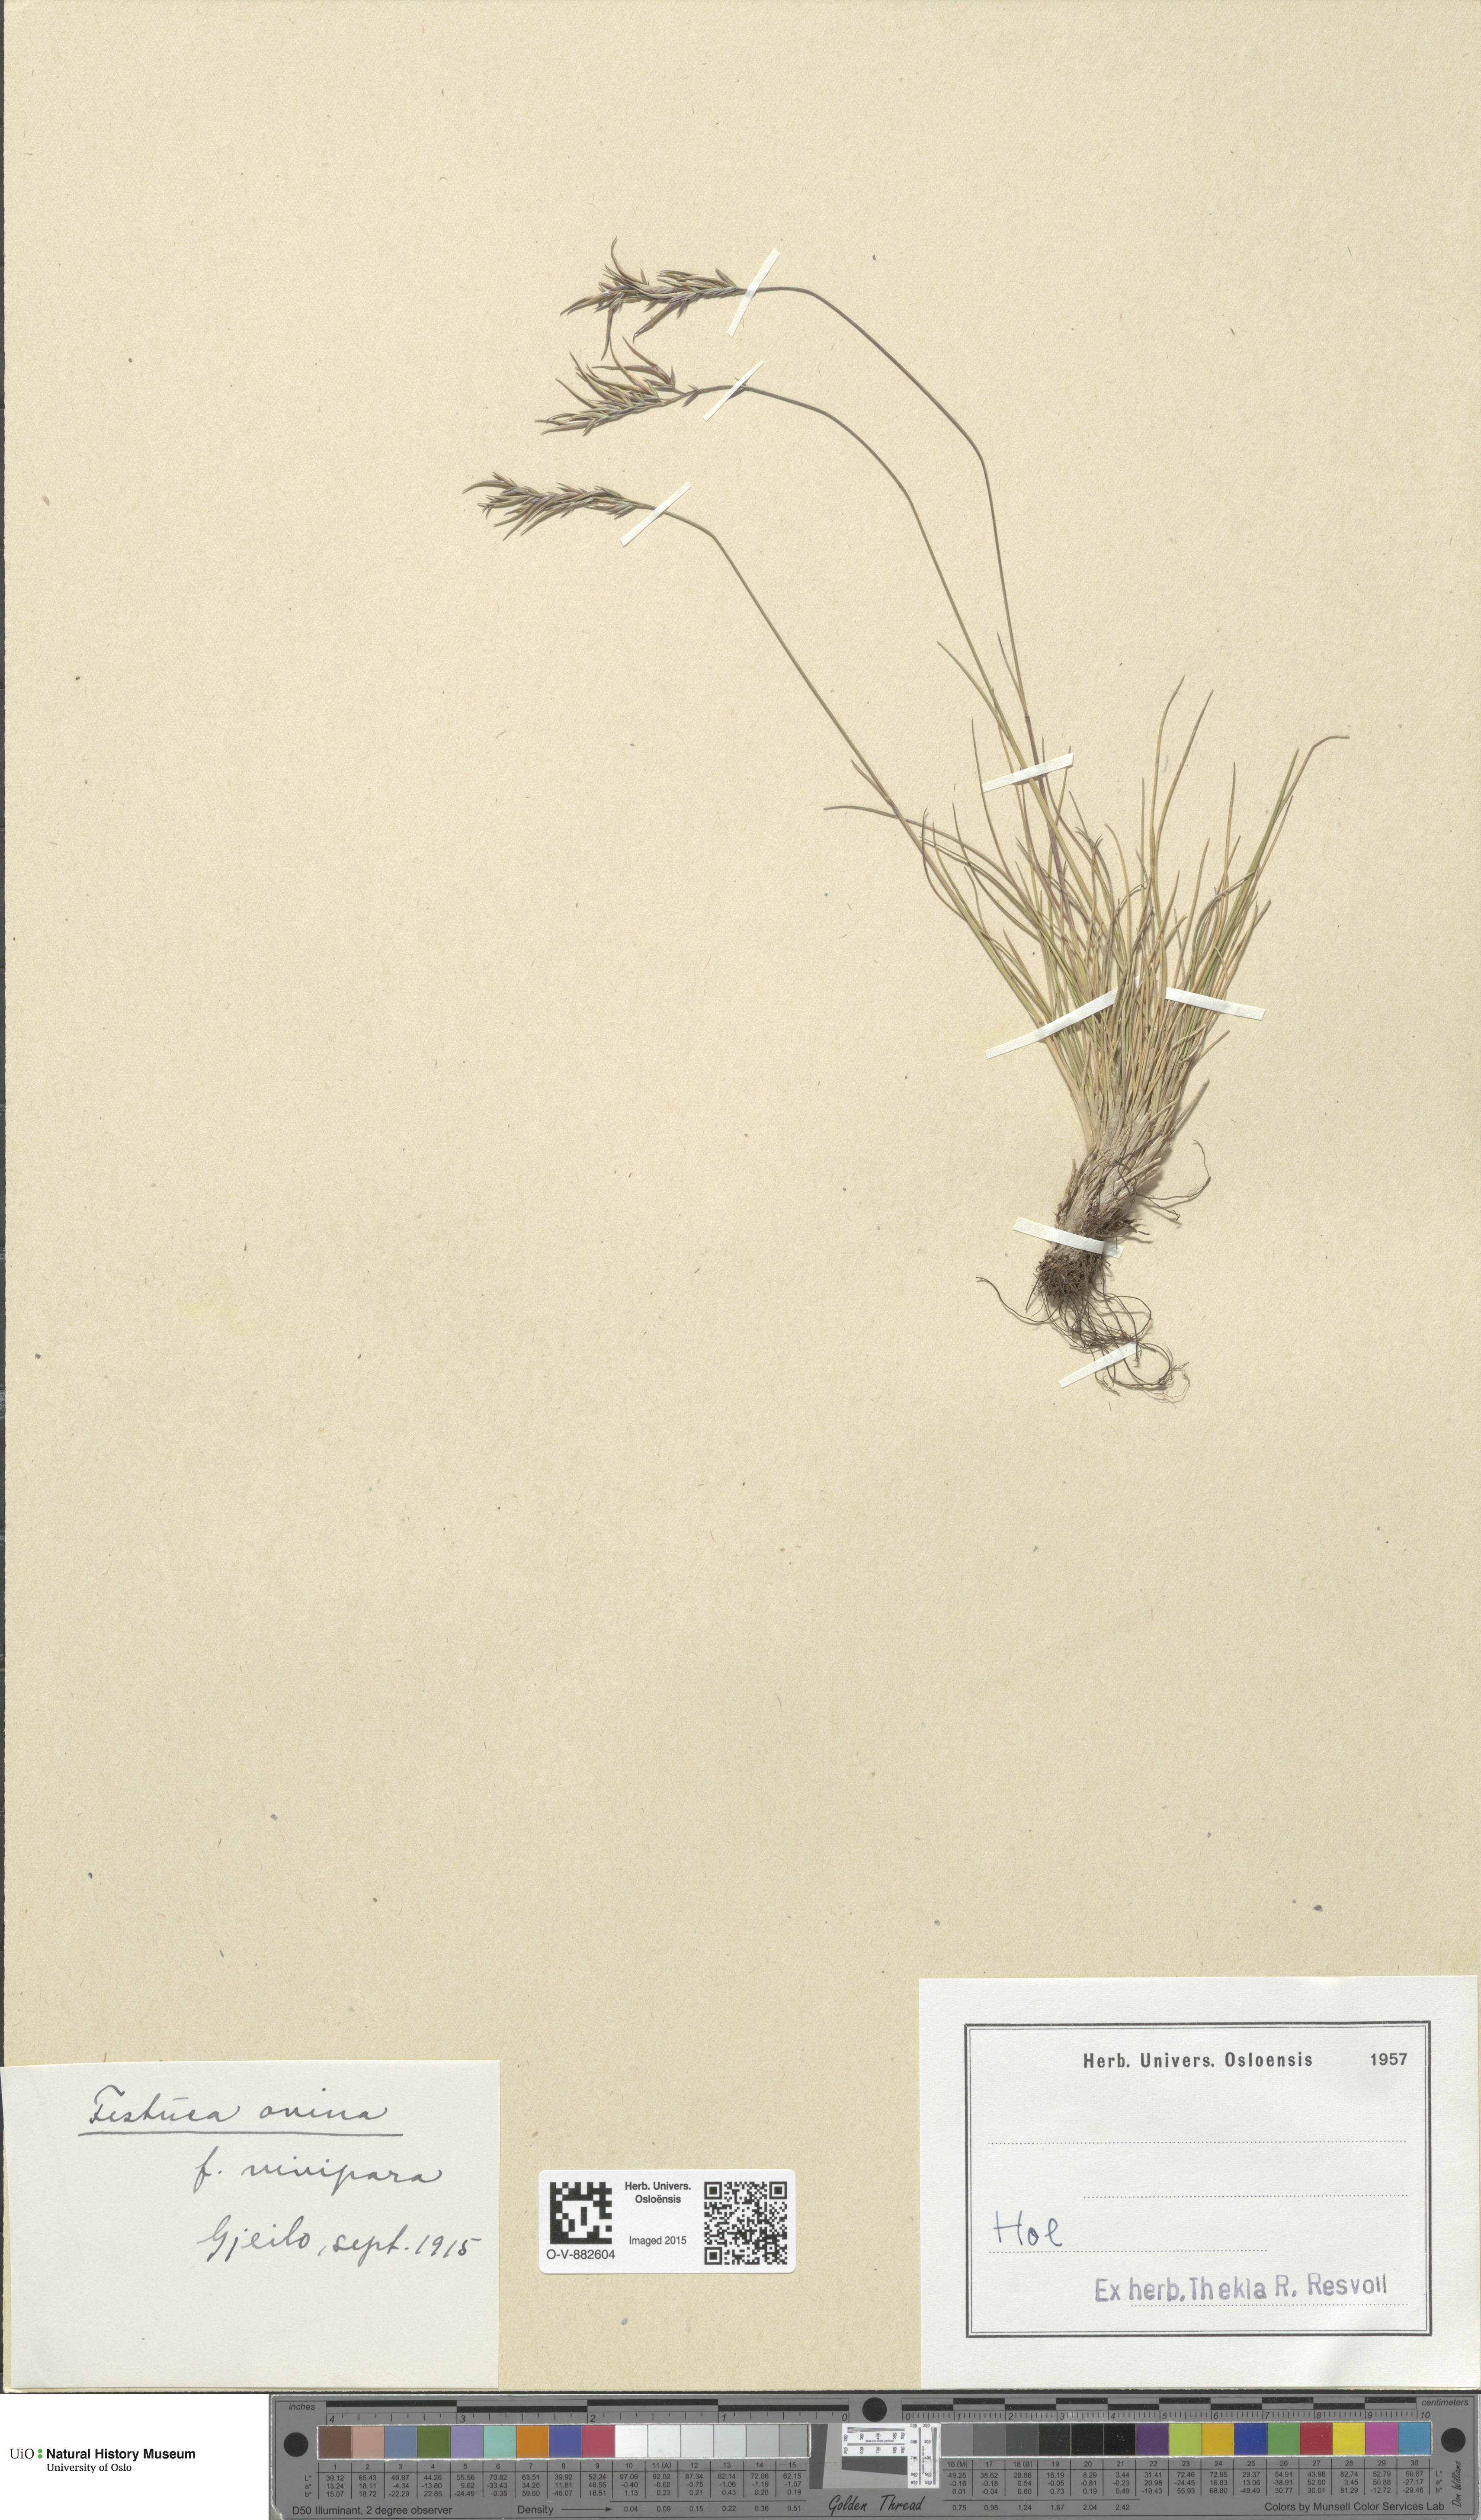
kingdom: Plantae
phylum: Tracheophyta
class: Liliopsida
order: Poales
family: Poaceae
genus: Festuca
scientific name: Festuca vivipara
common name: Viviparous sheep's-fescue
